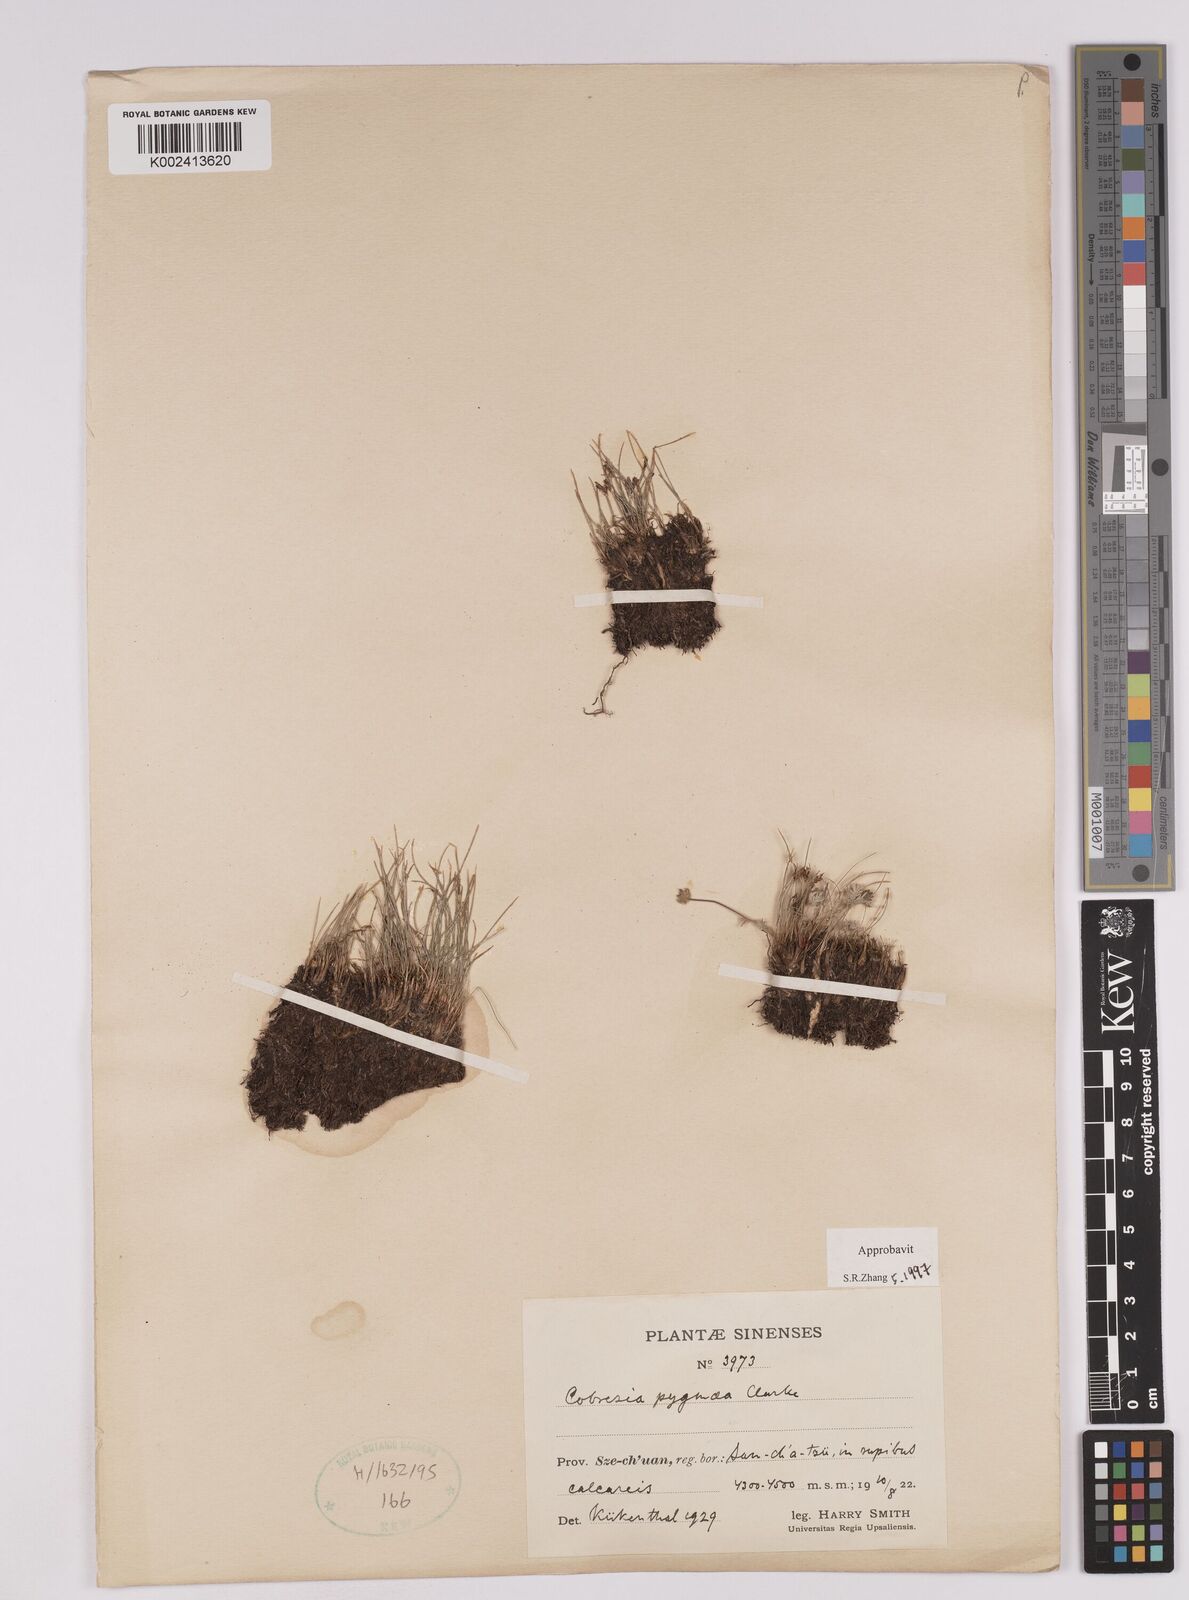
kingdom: Plantae
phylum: Tracheophyta
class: Liliopsida
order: Poales
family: Cyperaceae
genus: Carex
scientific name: Carex parvula
